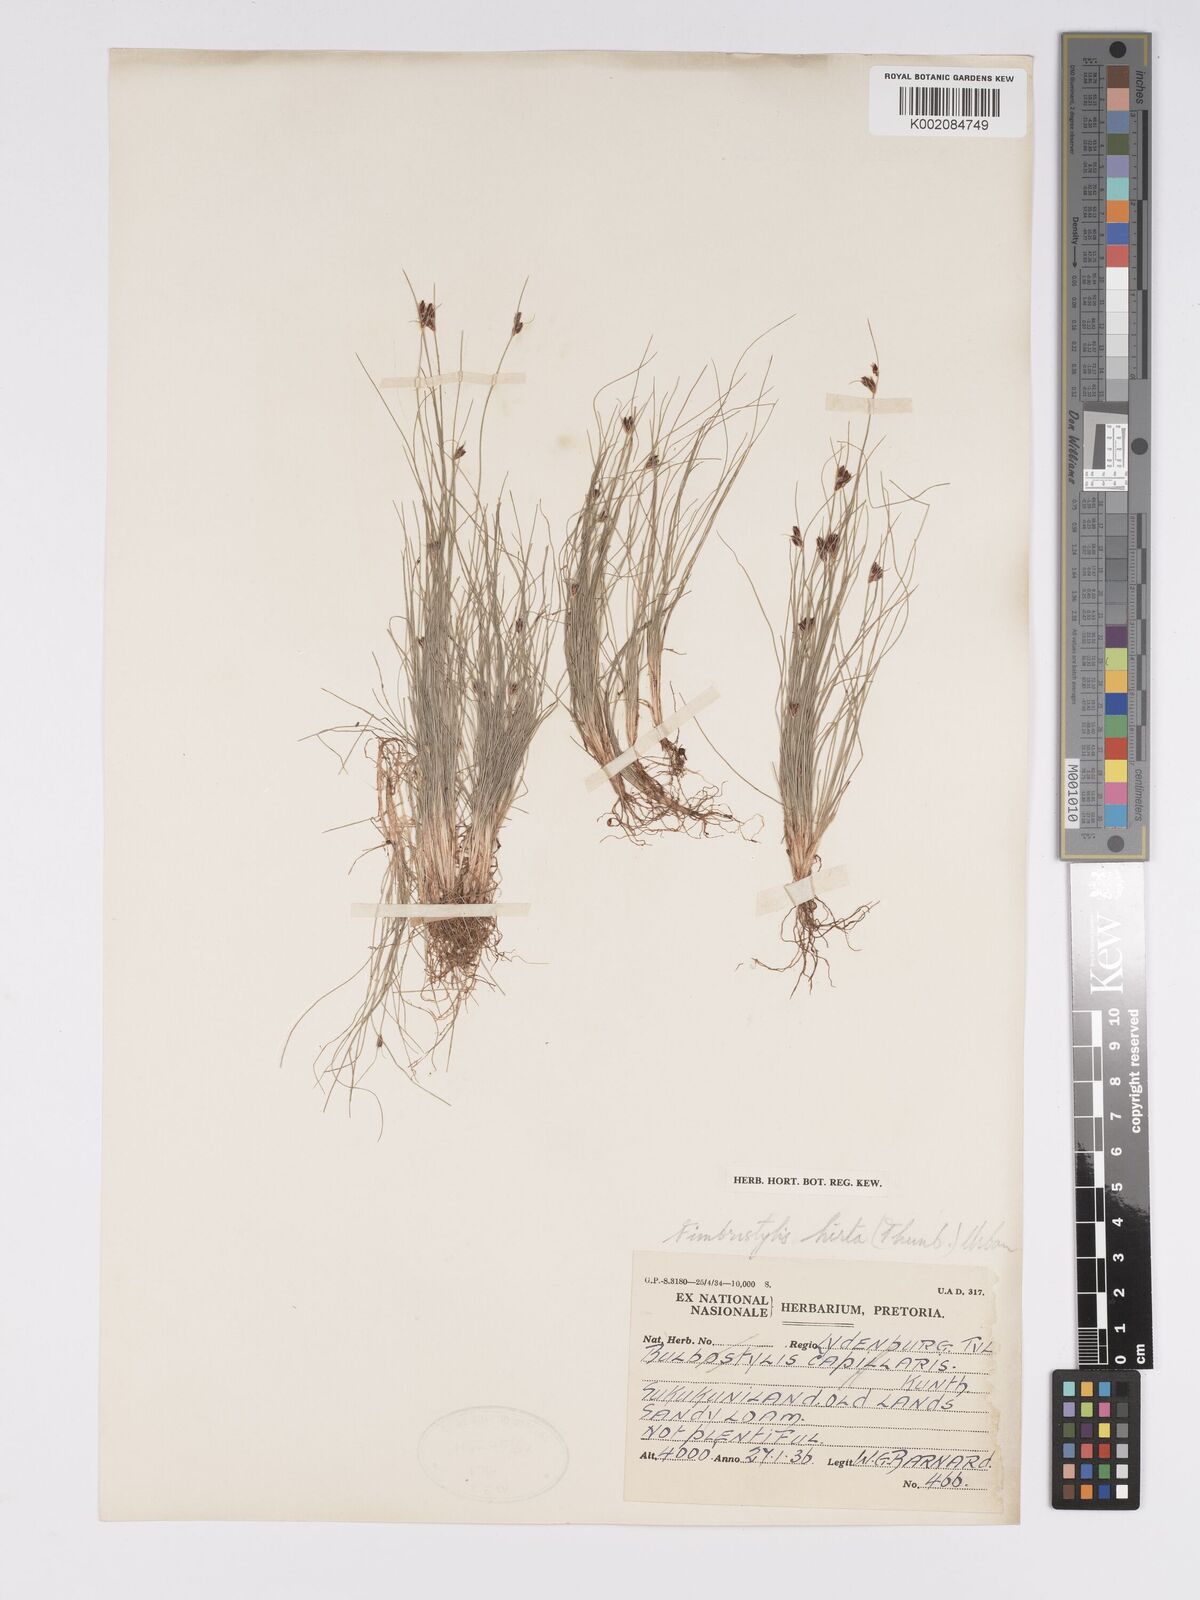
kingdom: Plantae
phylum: Tracheophyta
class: Liliopsida
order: Poales
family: Cyperaceae
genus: Bulbostylis
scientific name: Bulbostylis
